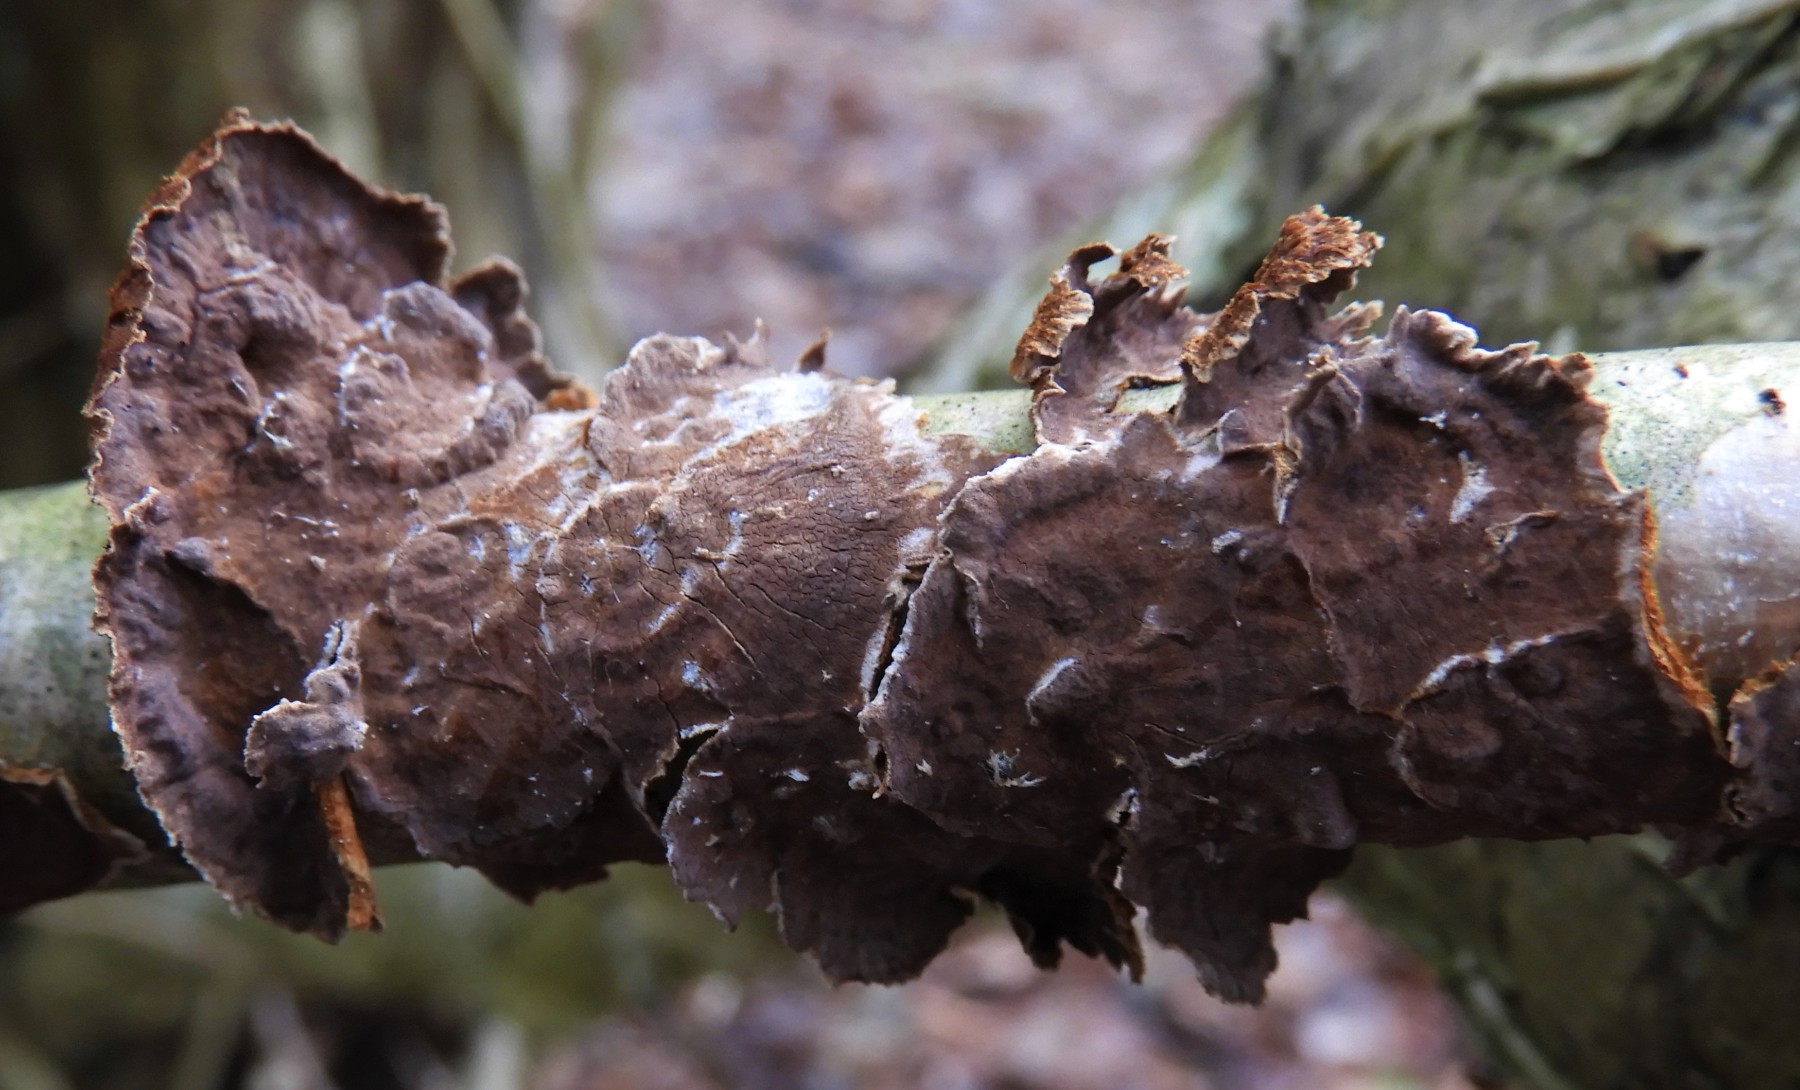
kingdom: Fungi
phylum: Basidiomycota
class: Agaricomycetes
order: Hymenochaetales
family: Hymenochaetaceae
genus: Hydnoporia
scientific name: Hydnoporia tabacina
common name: tobaksbrun ruslædersvamp
